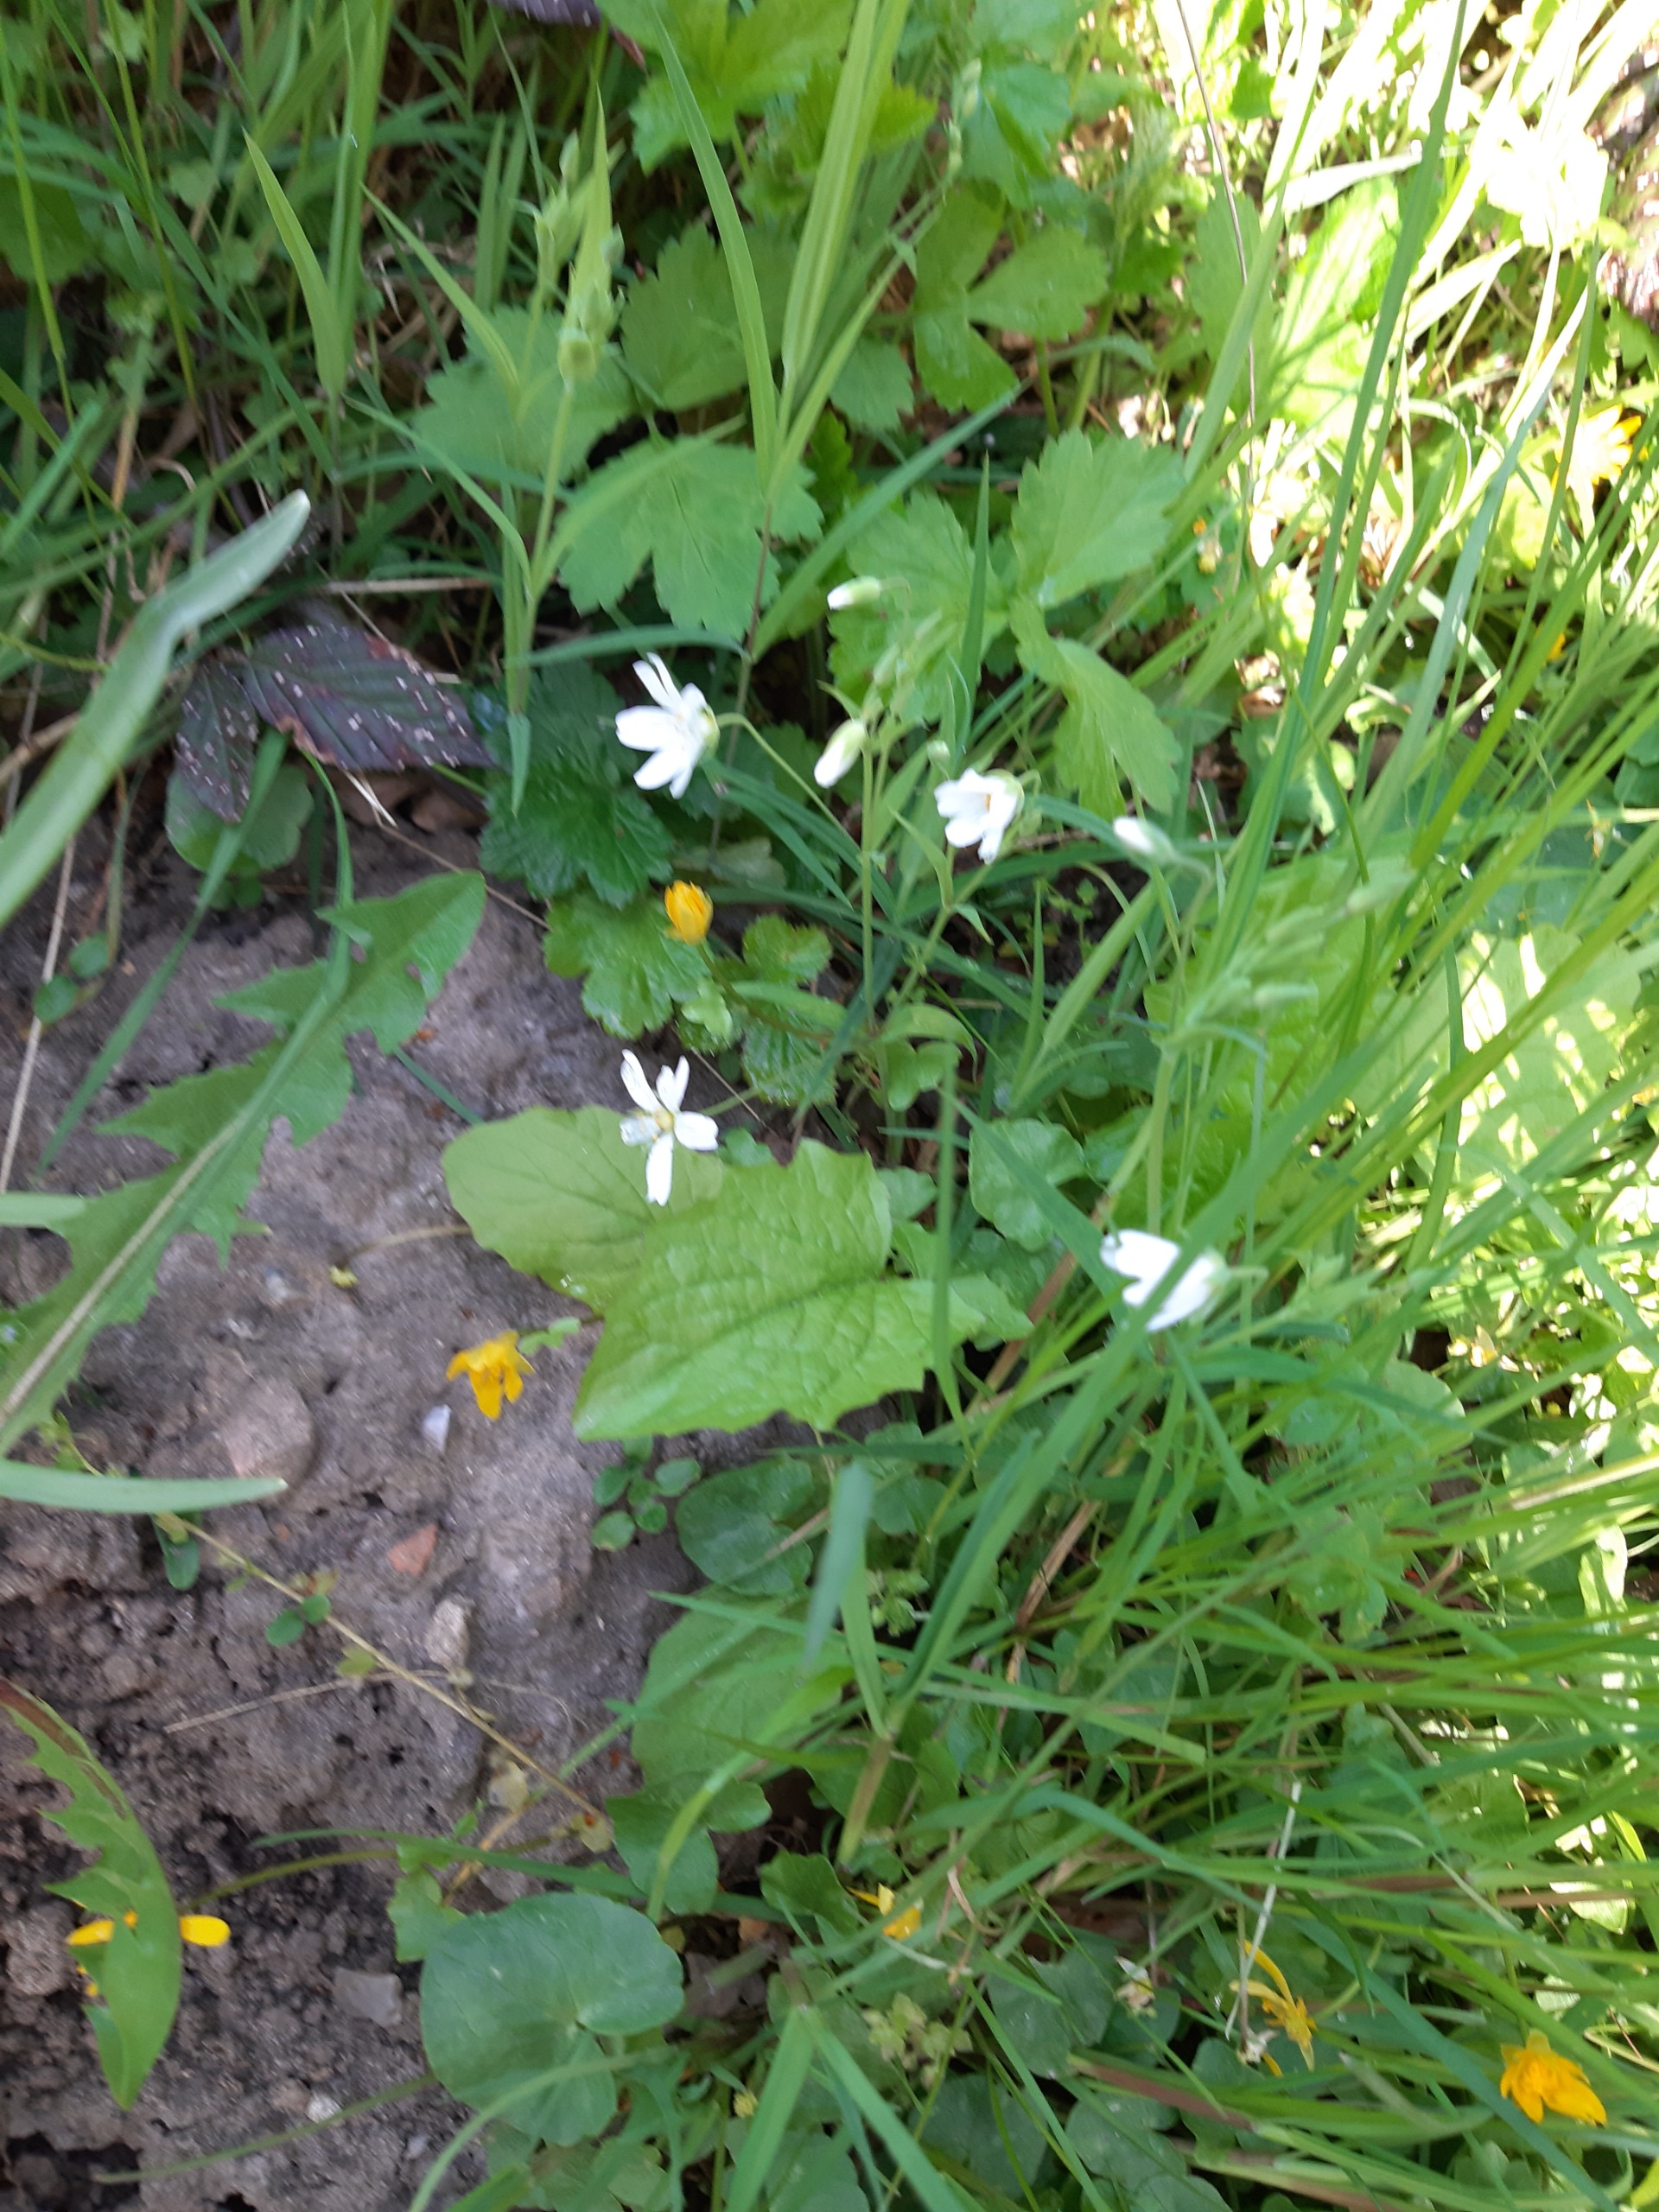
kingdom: Plantae
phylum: Tracheophyta
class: Magnoliopsida
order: Caryophyllales
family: Caryophyllaceae
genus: Rabelera
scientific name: Rabelera holostea
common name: Stor fladstjerne
